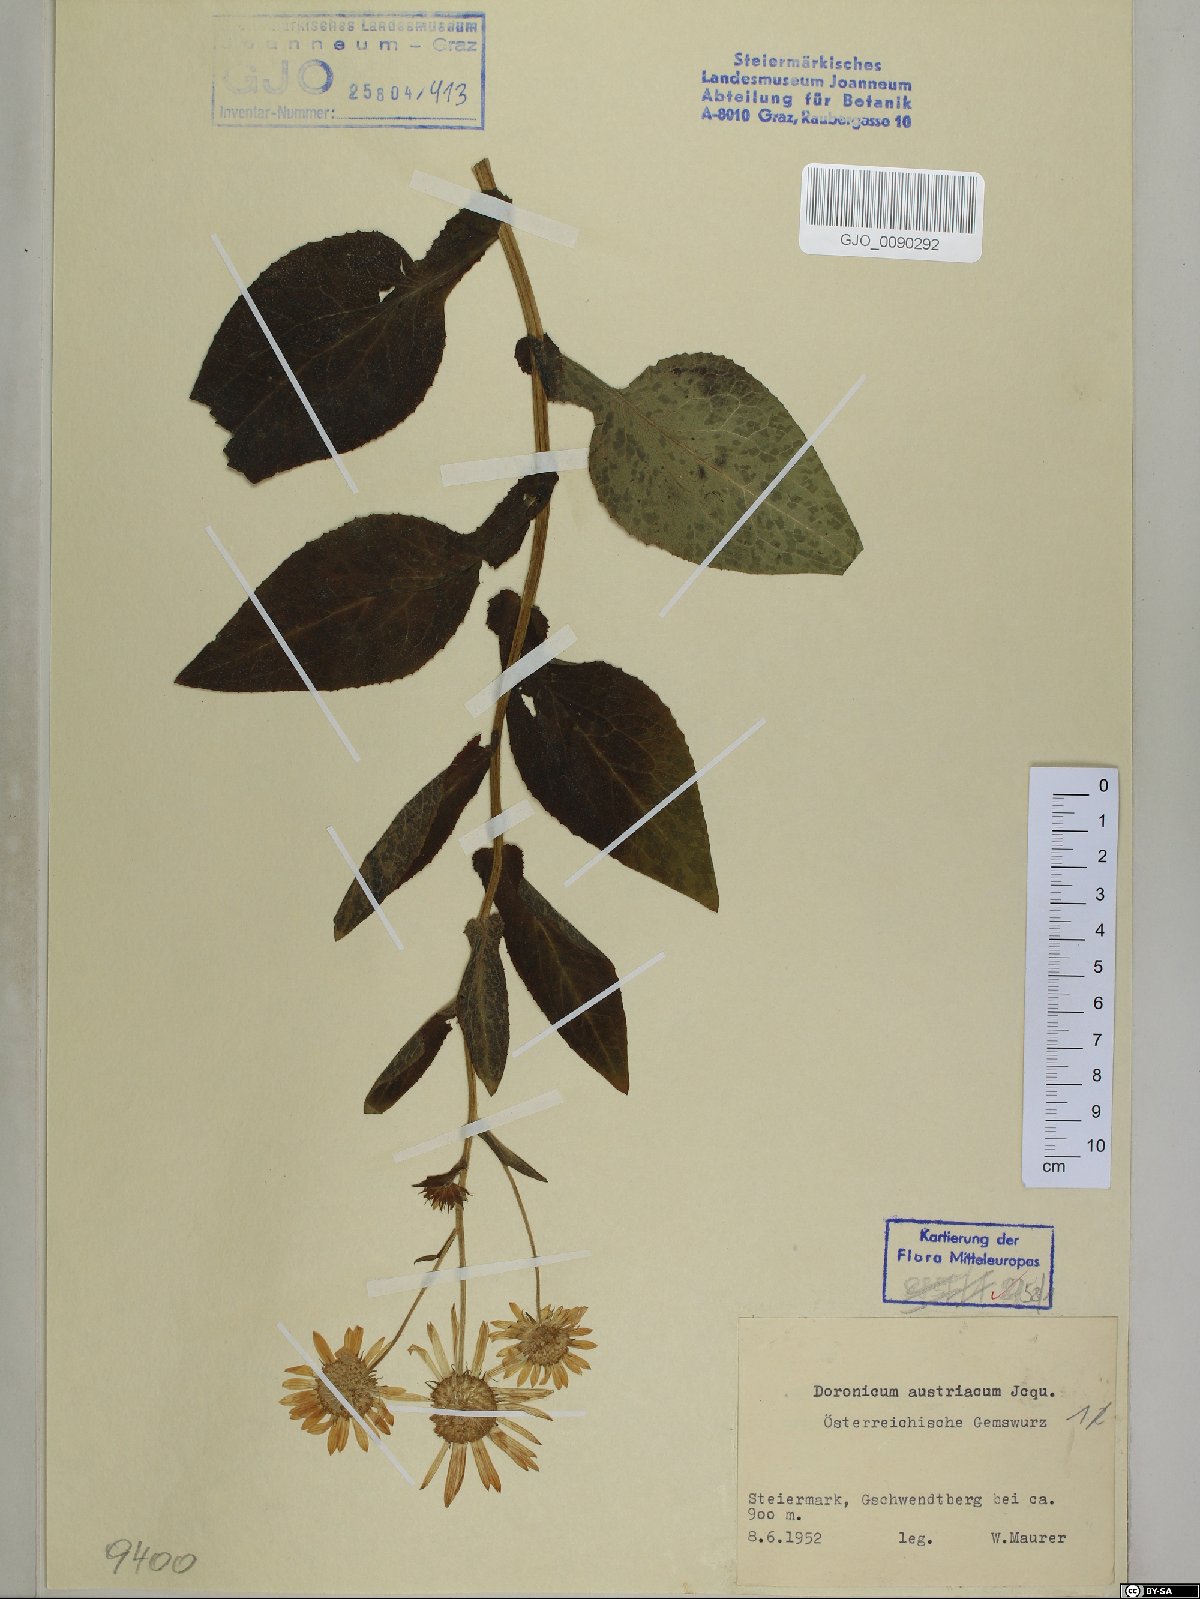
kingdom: Plantae
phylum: Tracheophyta
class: Magnoliopsida
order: Asterales
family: Asteraceae
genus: Doronicum
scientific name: Doronicum austriacum
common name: Austrian leopard's-bane
